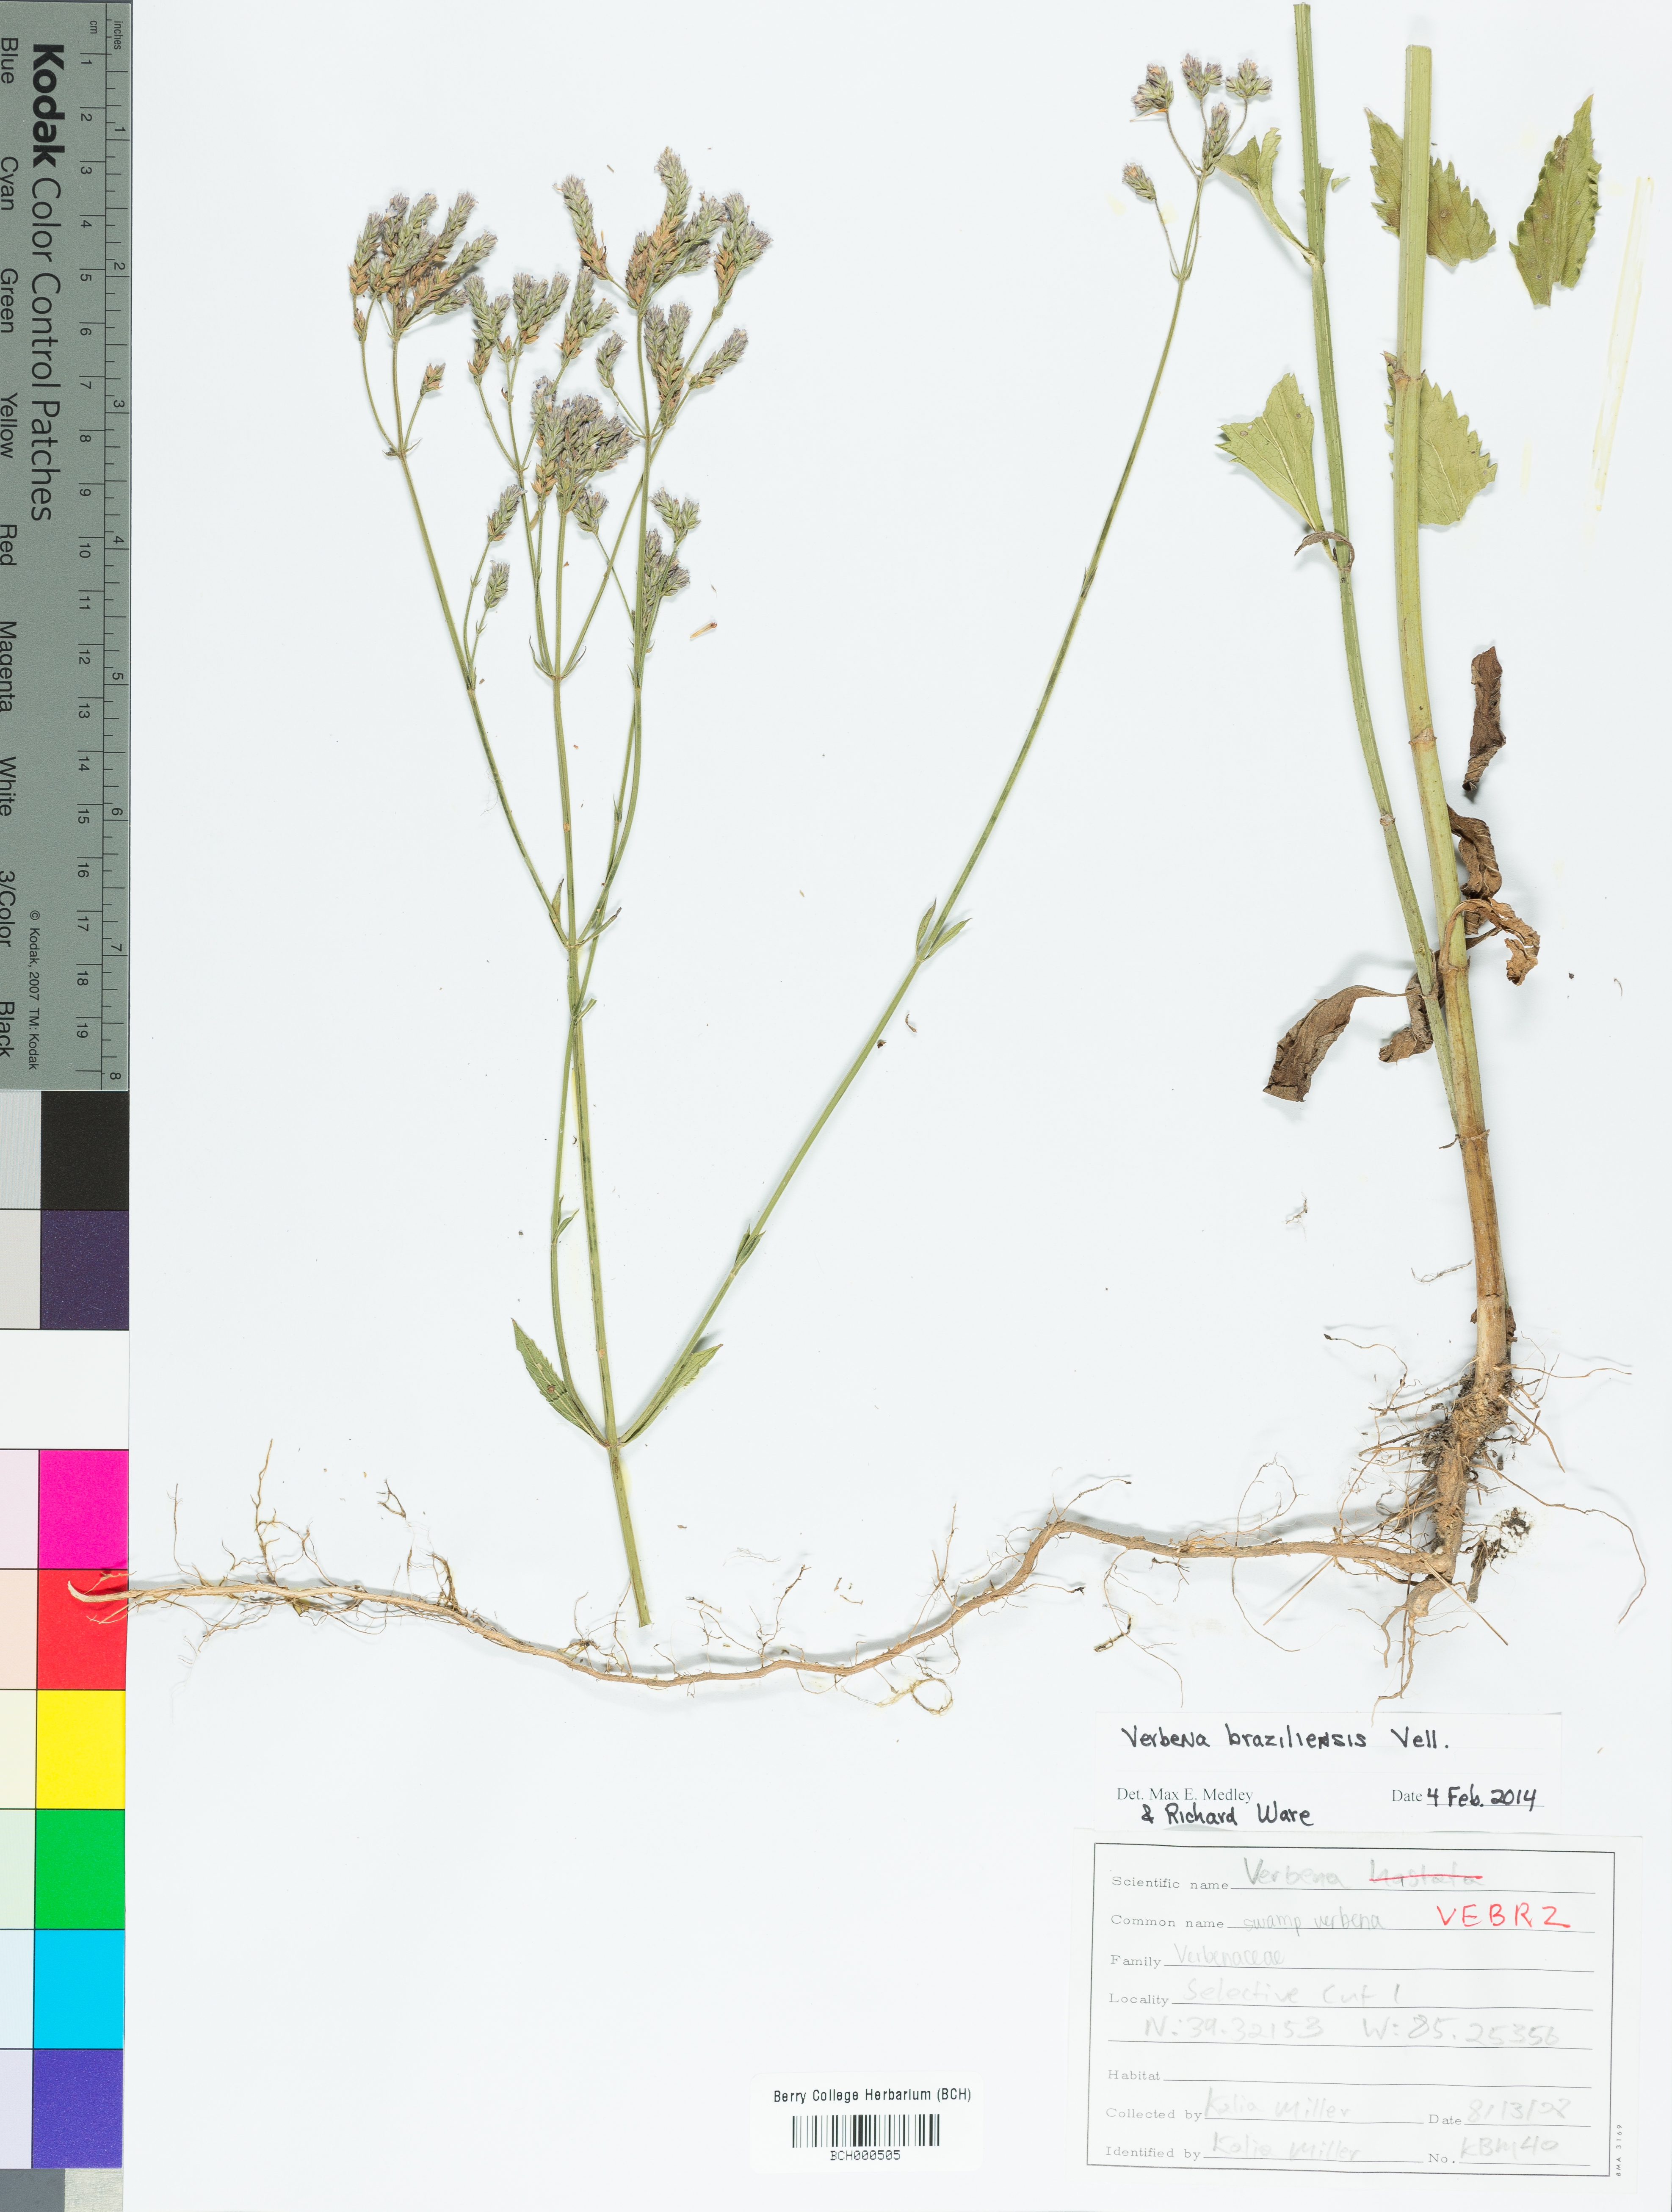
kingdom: Plantae
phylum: Tracheophyta
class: Magnoliopsida
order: Lamiales
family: Verbenaceae
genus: Verbena
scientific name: Verbena brasiliensis
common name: Brazilian vervain
